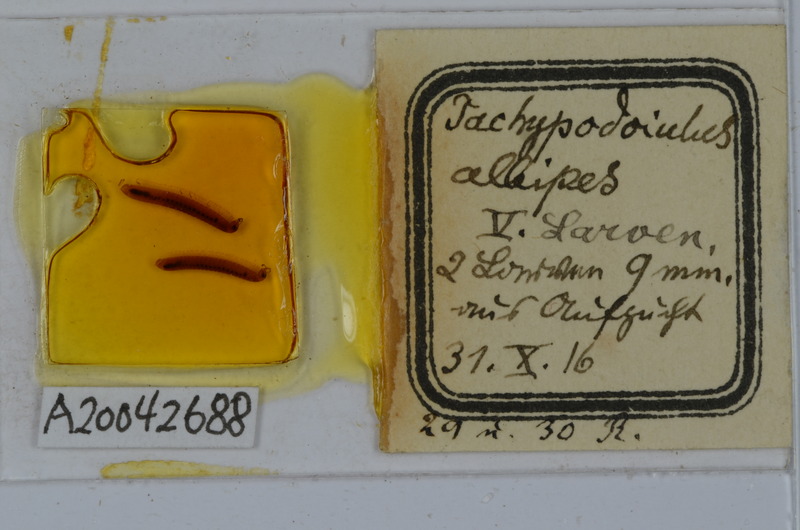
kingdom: Animalia
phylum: Arthropoda
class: Diplopoda
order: Julida
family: Julidae
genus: Tachypodoiulus
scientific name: Tachypodoiulus niger
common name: White-legged snake millipede
